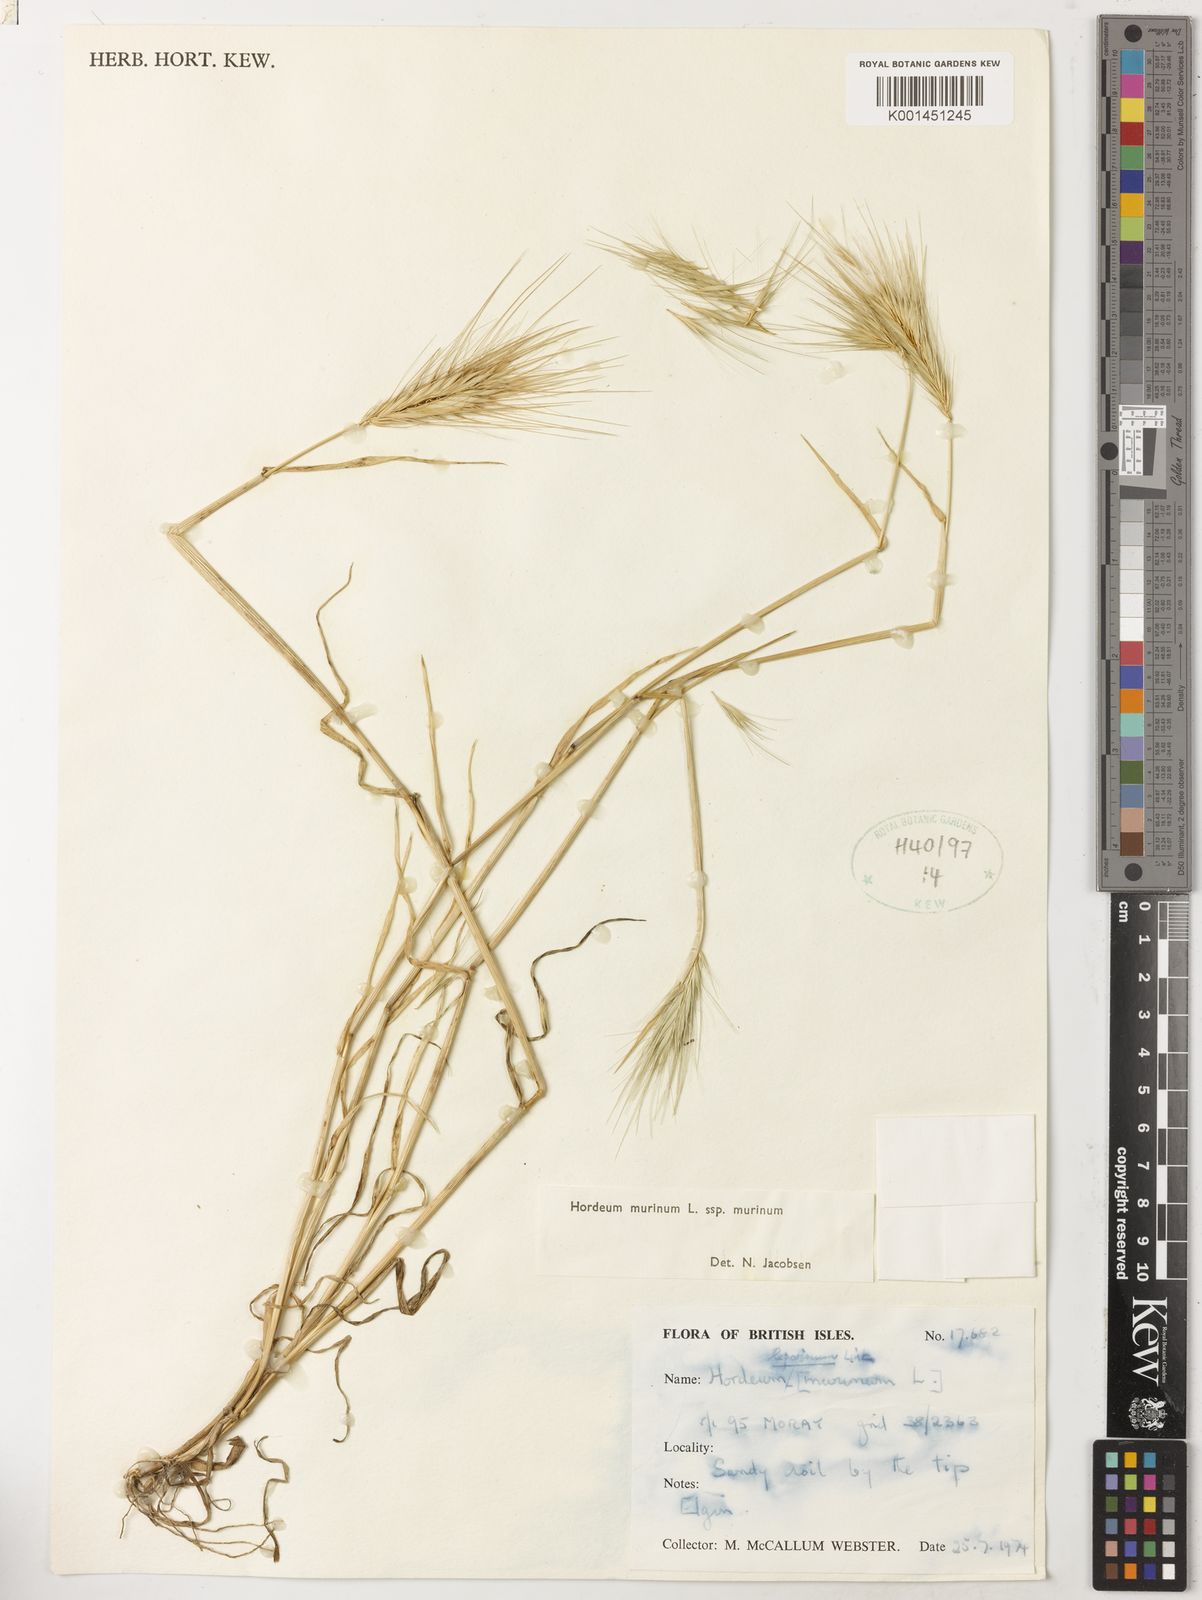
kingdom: Plantae
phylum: Tracheophyta
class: Liliopsida
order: Poales
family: Poaceae
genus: Hordeum
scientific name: Hordeum murinum
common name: Wall barley
